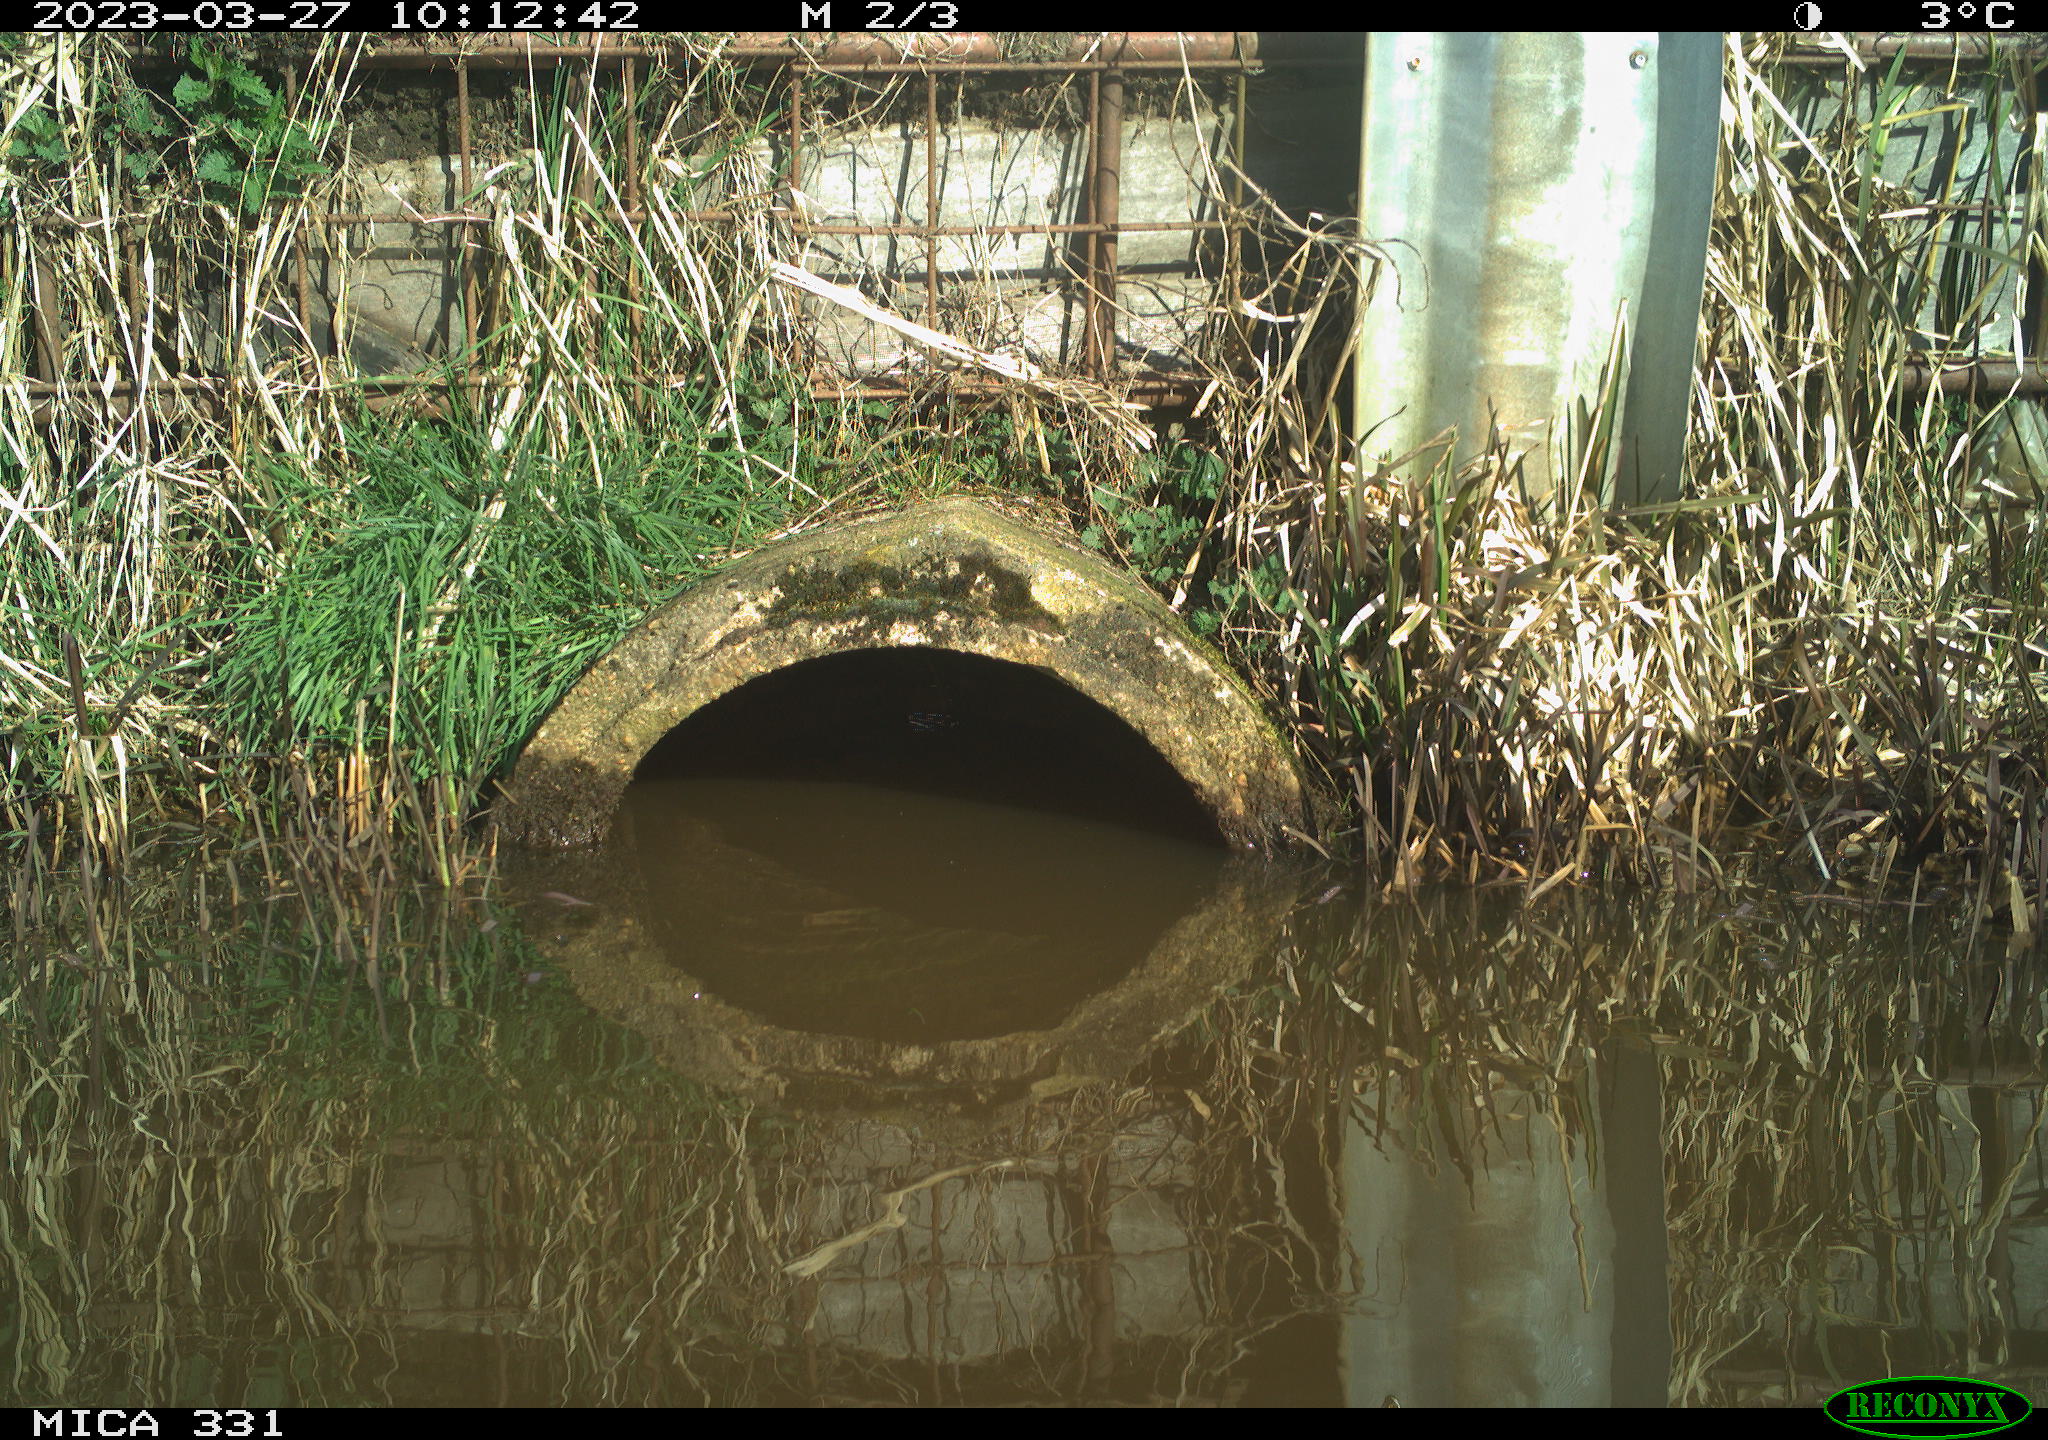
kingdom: Animalia
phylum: Chordata
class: Aves
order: Gruiformes
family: Rallidae
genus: Fulica
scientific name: Fulica atra
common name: Eurasian coot
